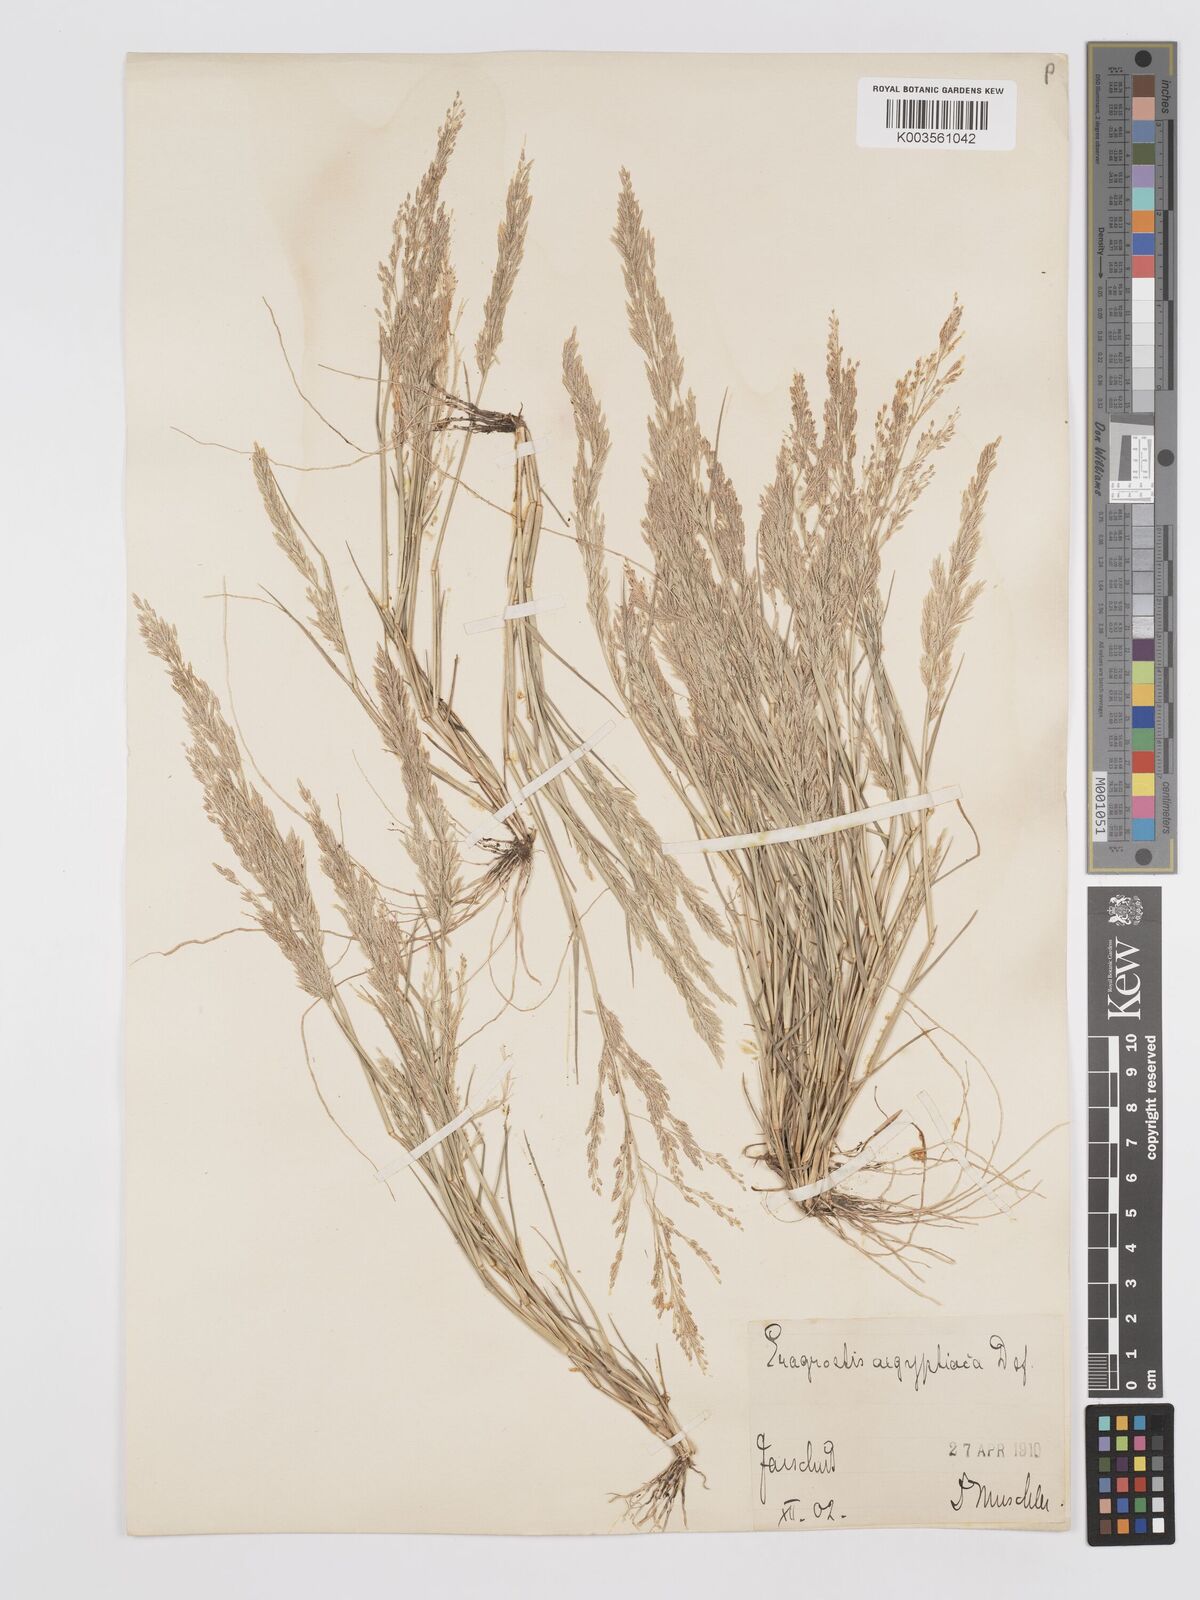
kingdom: Plantae
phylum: Tracheophyta
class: Liliopsida
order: Poales
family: Poaceae
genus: Eragrostis
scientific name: Eragrostis aegyptiaca
